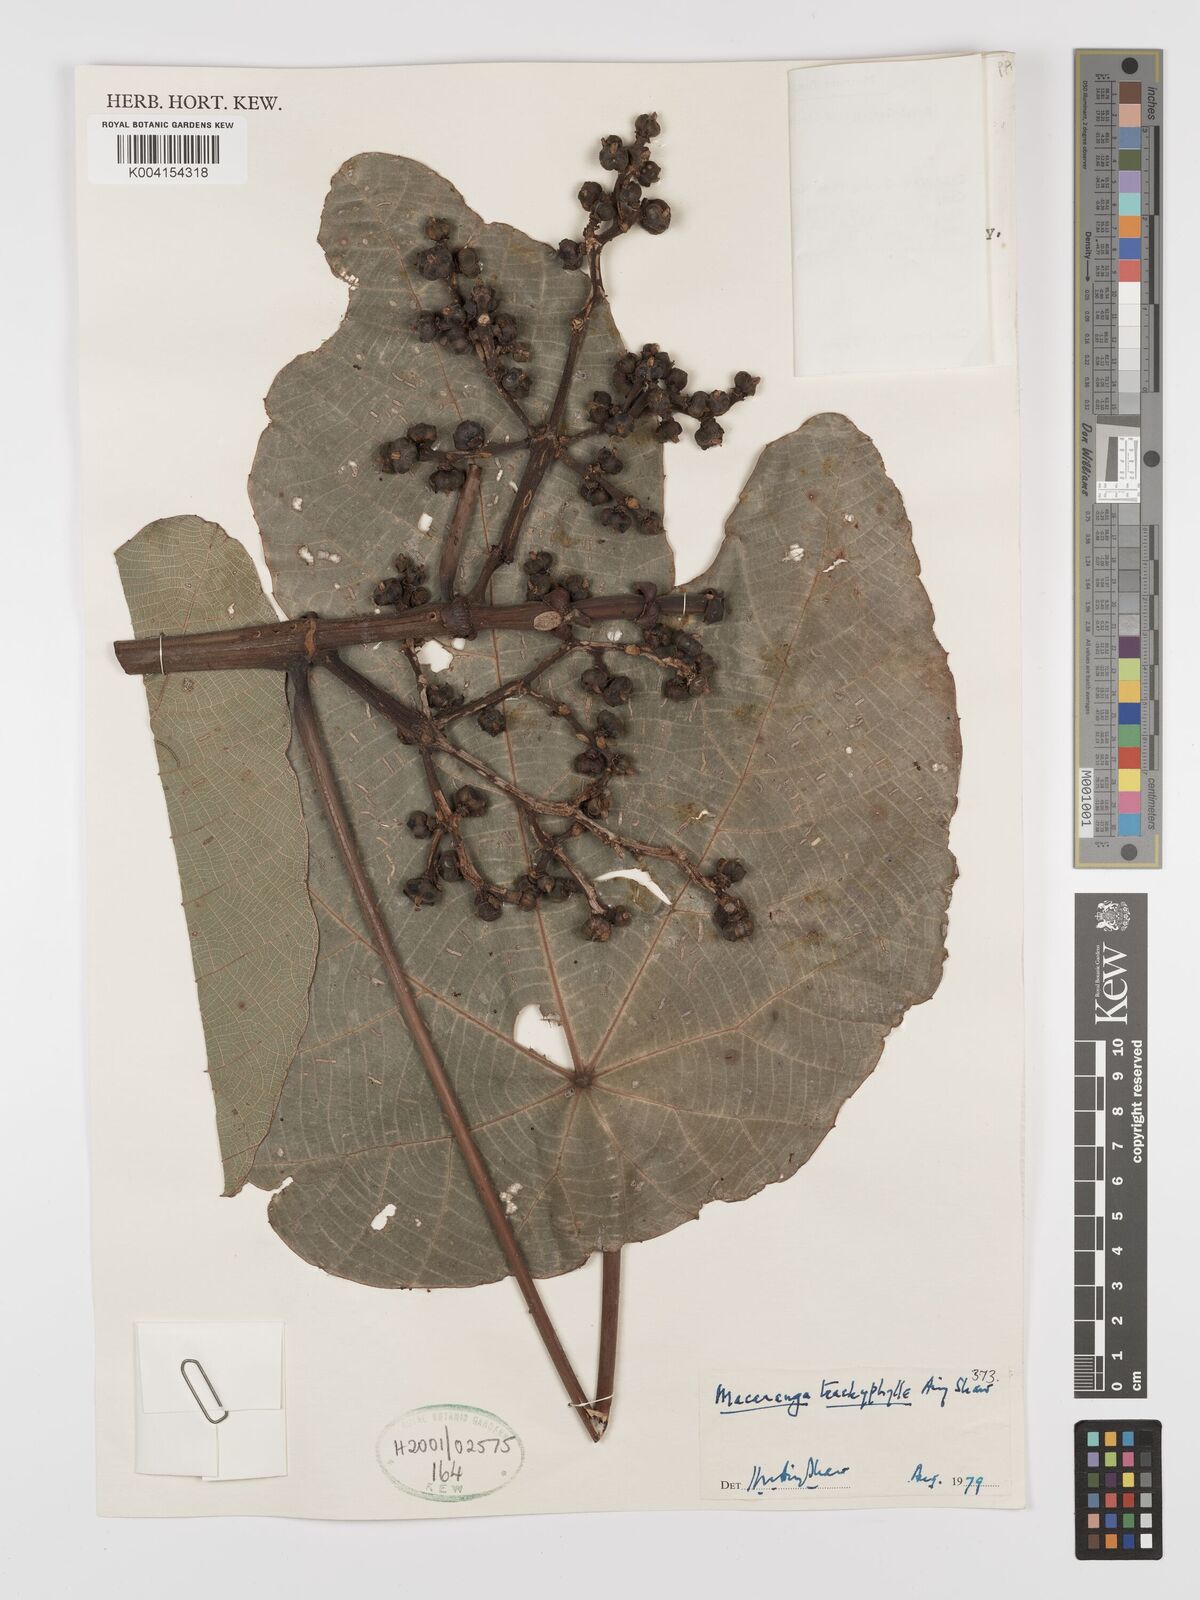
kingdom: Plantae
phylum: Tracheophyta
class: Magnoliopsida
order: Malpighiales
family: Euphorbiaceae
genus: Macaranga
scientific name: Macaranga trachyphylla
